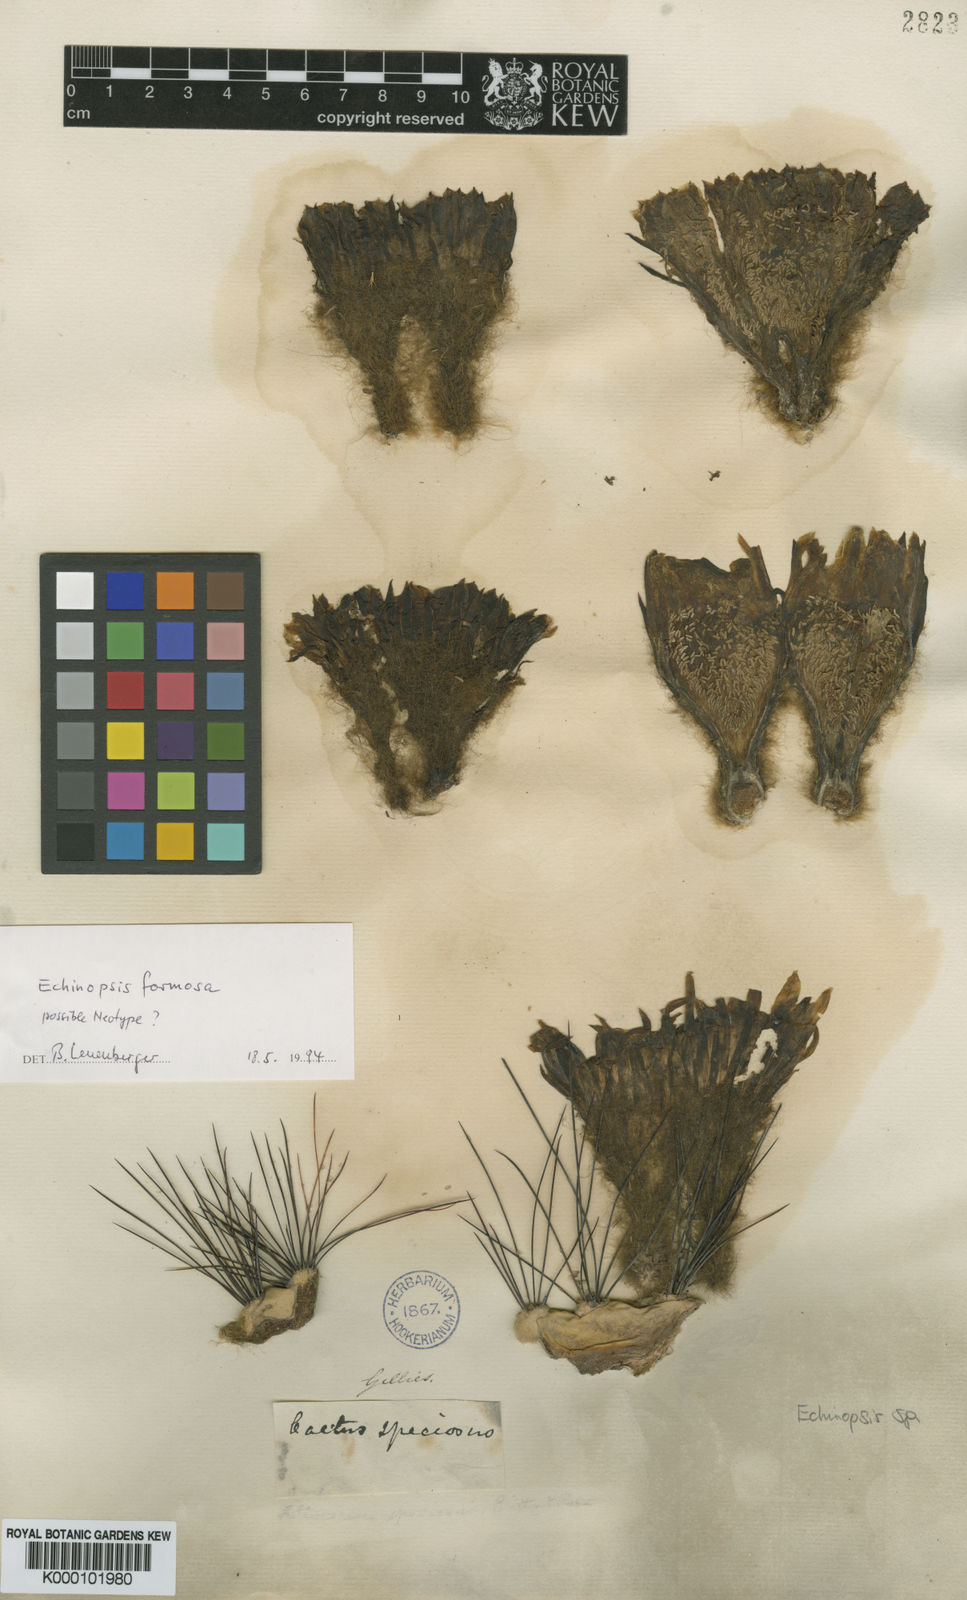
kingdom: Plantae
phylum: Tracheophyta
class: Magnoliopsida
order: Caryophyllales
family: Cactaceae
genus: Soehrensia
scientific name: Soehrensia formosa
